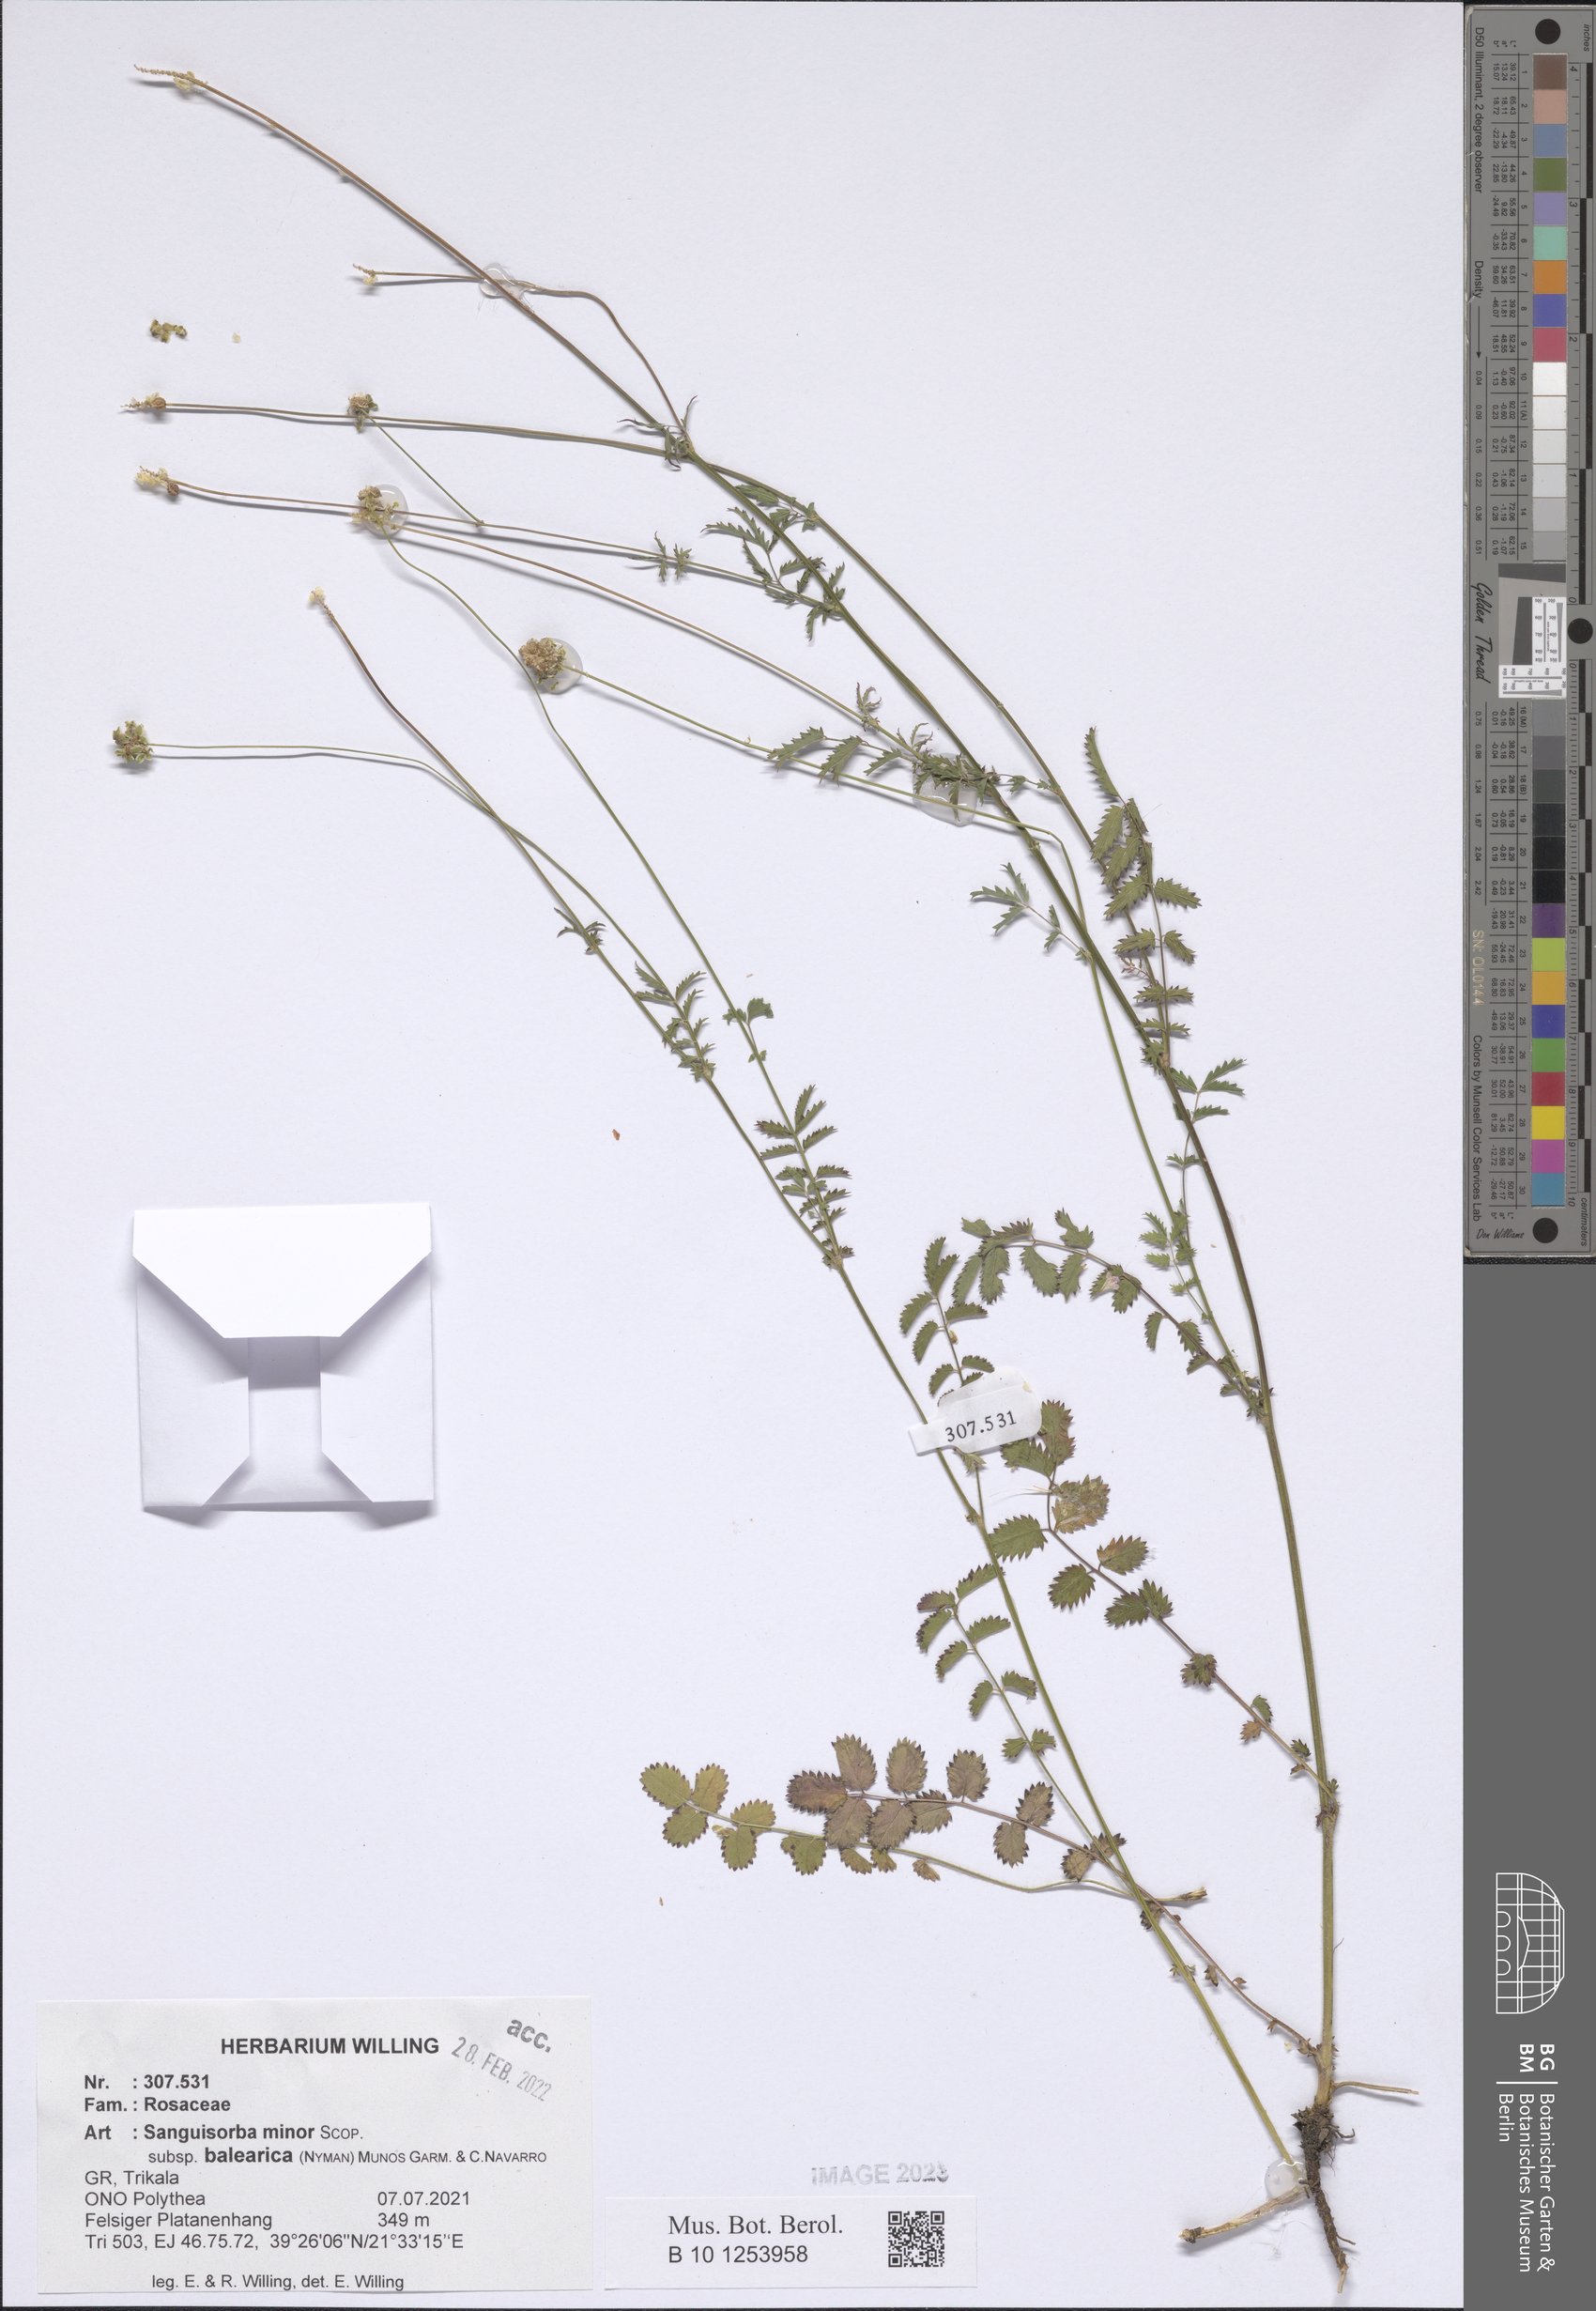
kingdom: Plantae
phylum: Tracheophyta
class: Magnoliopsida
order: Rosales
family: Rosaceae
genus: Poterium
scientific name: Poterium sanguisorba
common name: Salad burnet
